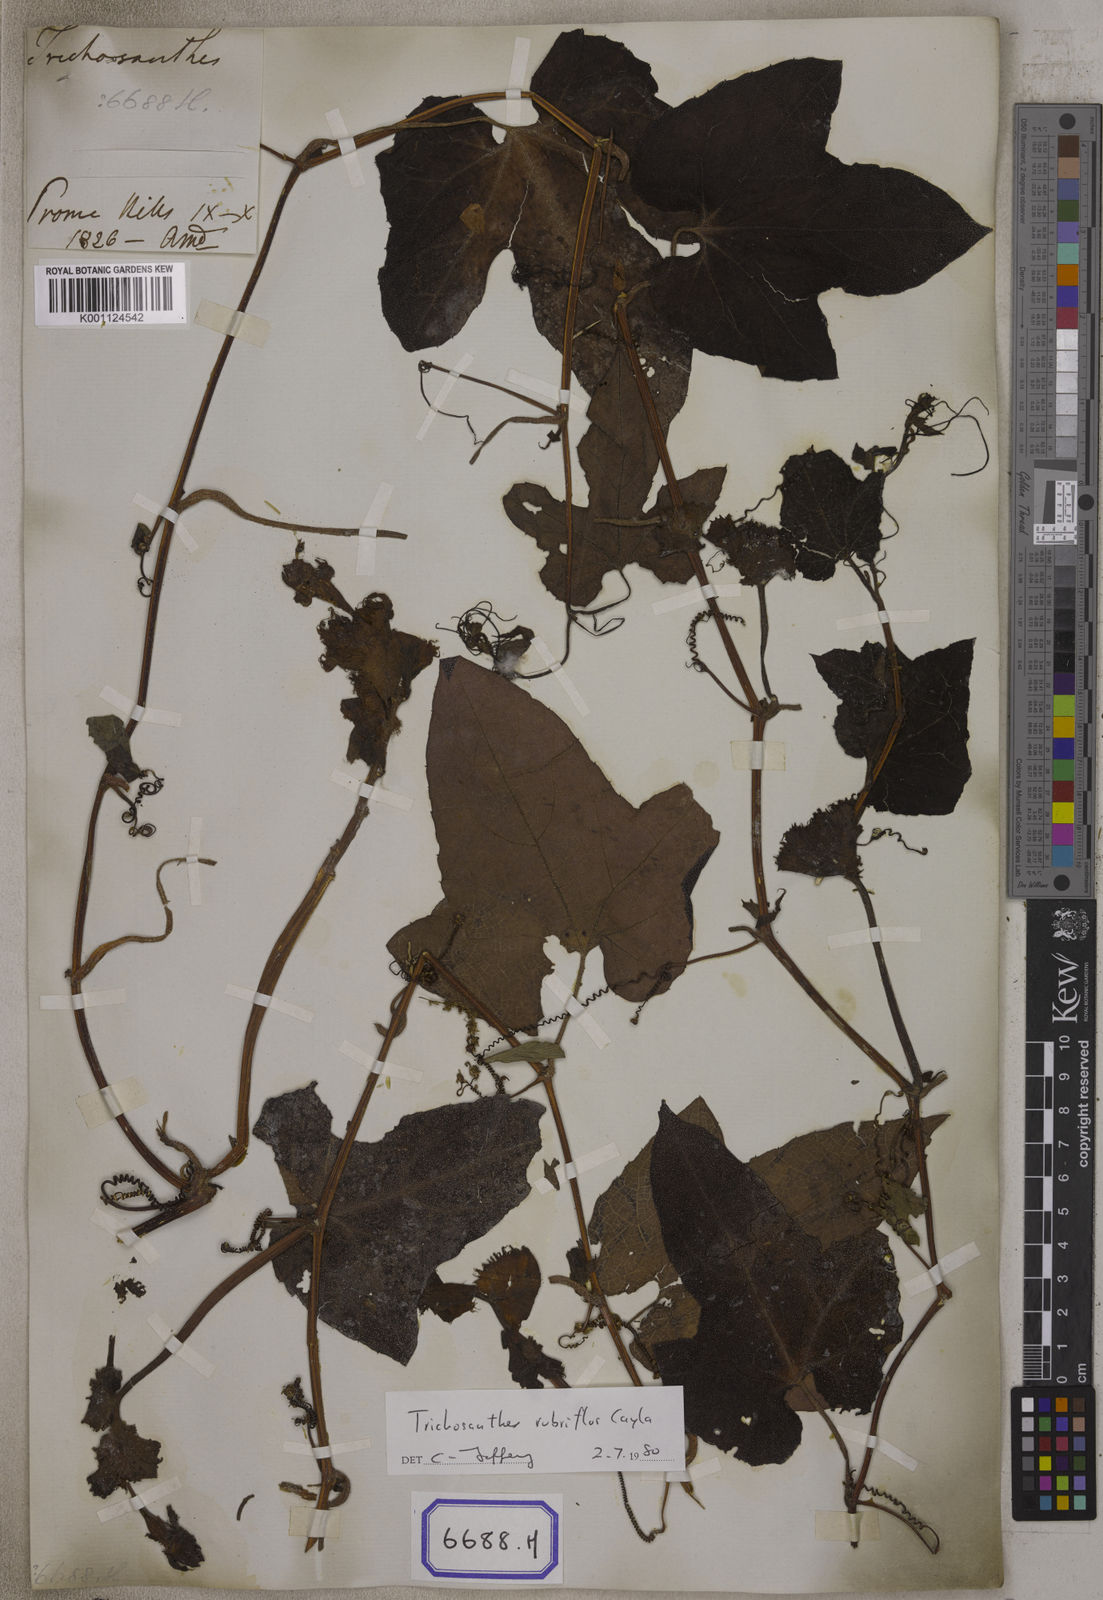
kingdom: Plantae
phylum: Tracheophyta
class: Magnoliopsida
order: Cucurbitales
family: Cucurbitaceae
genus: Trichosanthes
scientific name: Trichosanthes
